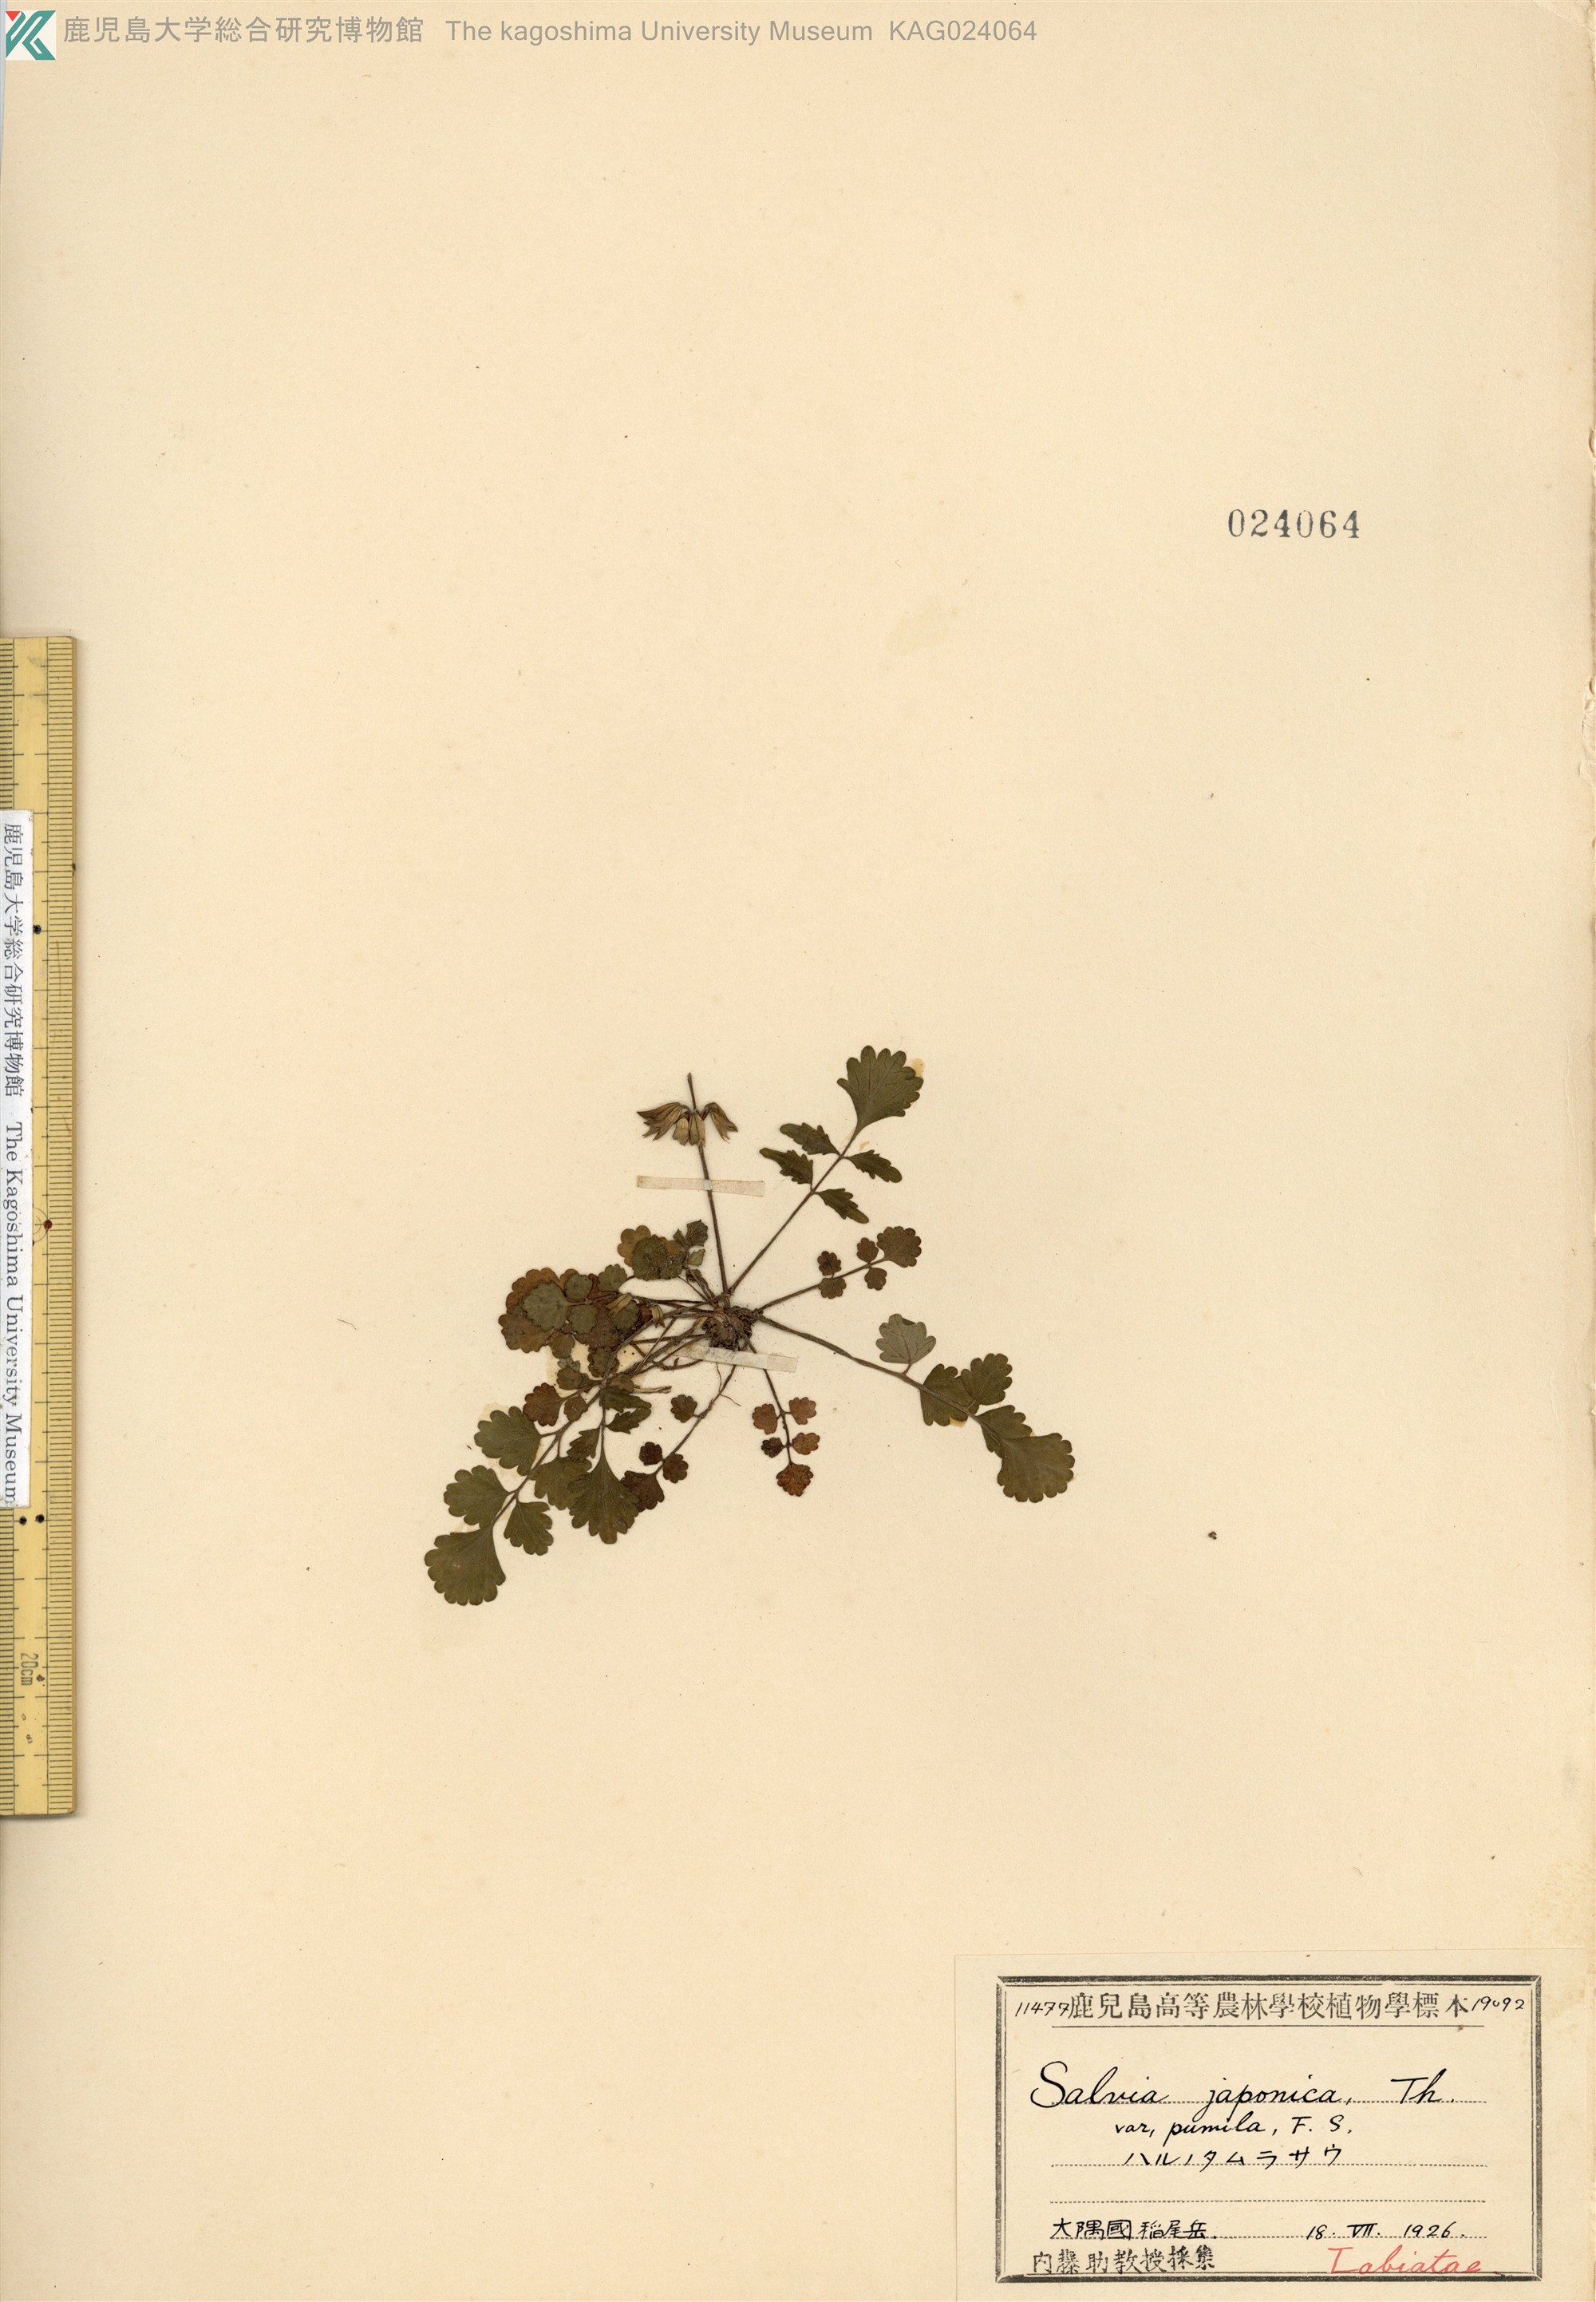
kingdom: Plantae
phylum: Tracheophyta
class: Magnoliopsida
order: Lamiales
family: Lamiaceae
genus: Salvia
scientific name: Salvia ranzaniana
